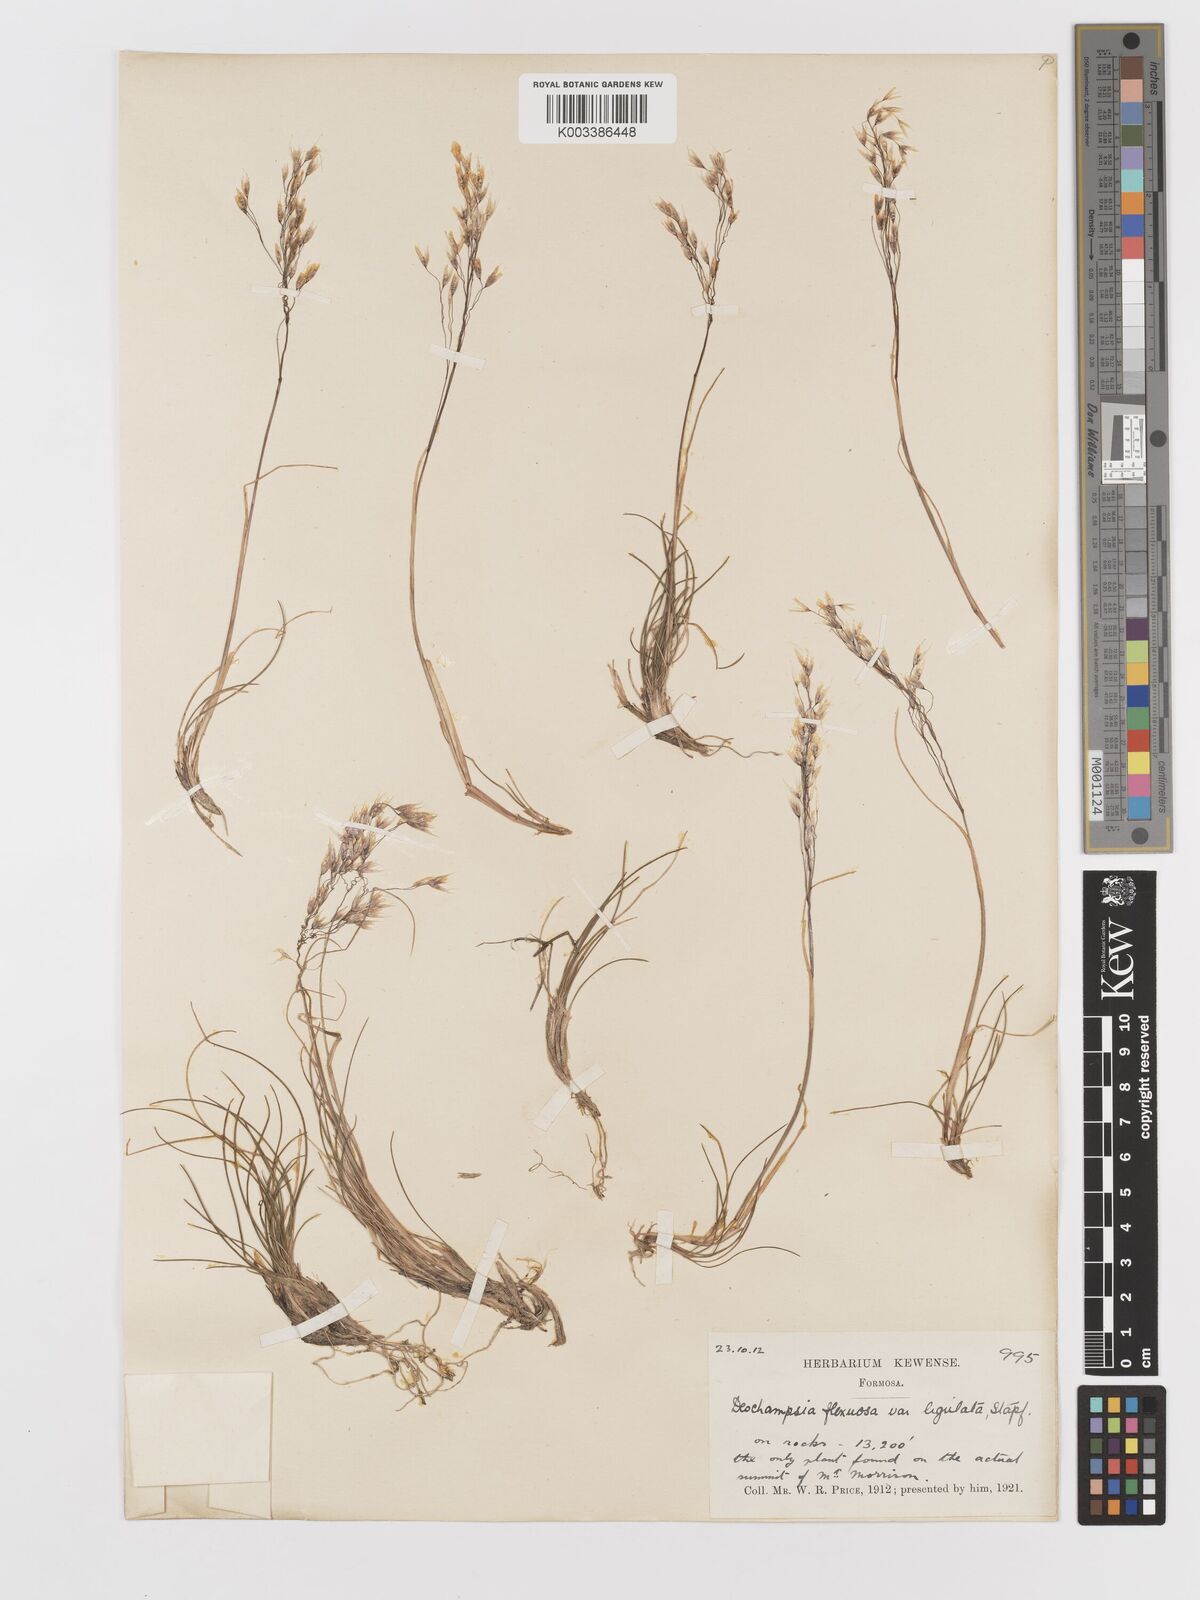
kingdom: Plantae
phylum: Tracheophyta
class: Liliopsida
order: Poales
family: Poaceae
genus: Avenella
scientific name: Avenella flexuosa
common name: Wavy hairgrass
